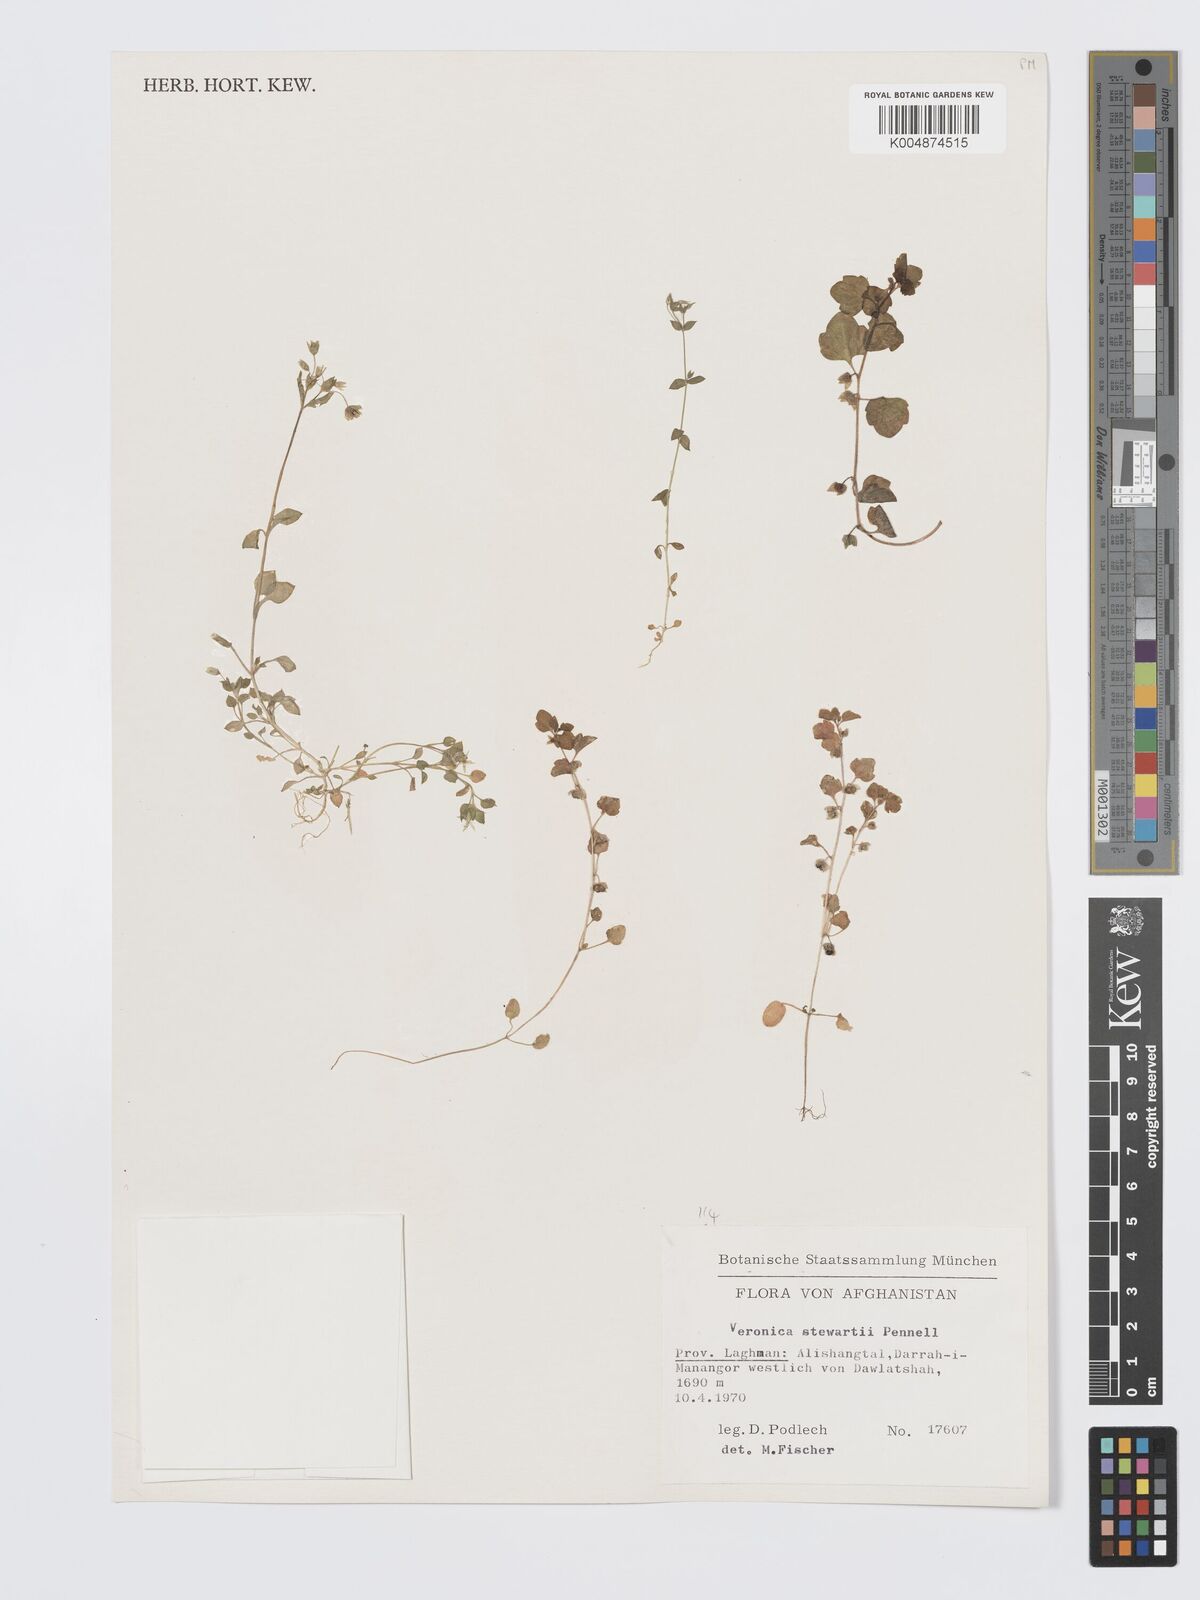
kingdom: Plantae
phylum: Tracheophyta
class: Magnoliopsida
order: Lamiales
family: Plantaginaceae
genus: Veronica
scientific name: Veronica stewartii
